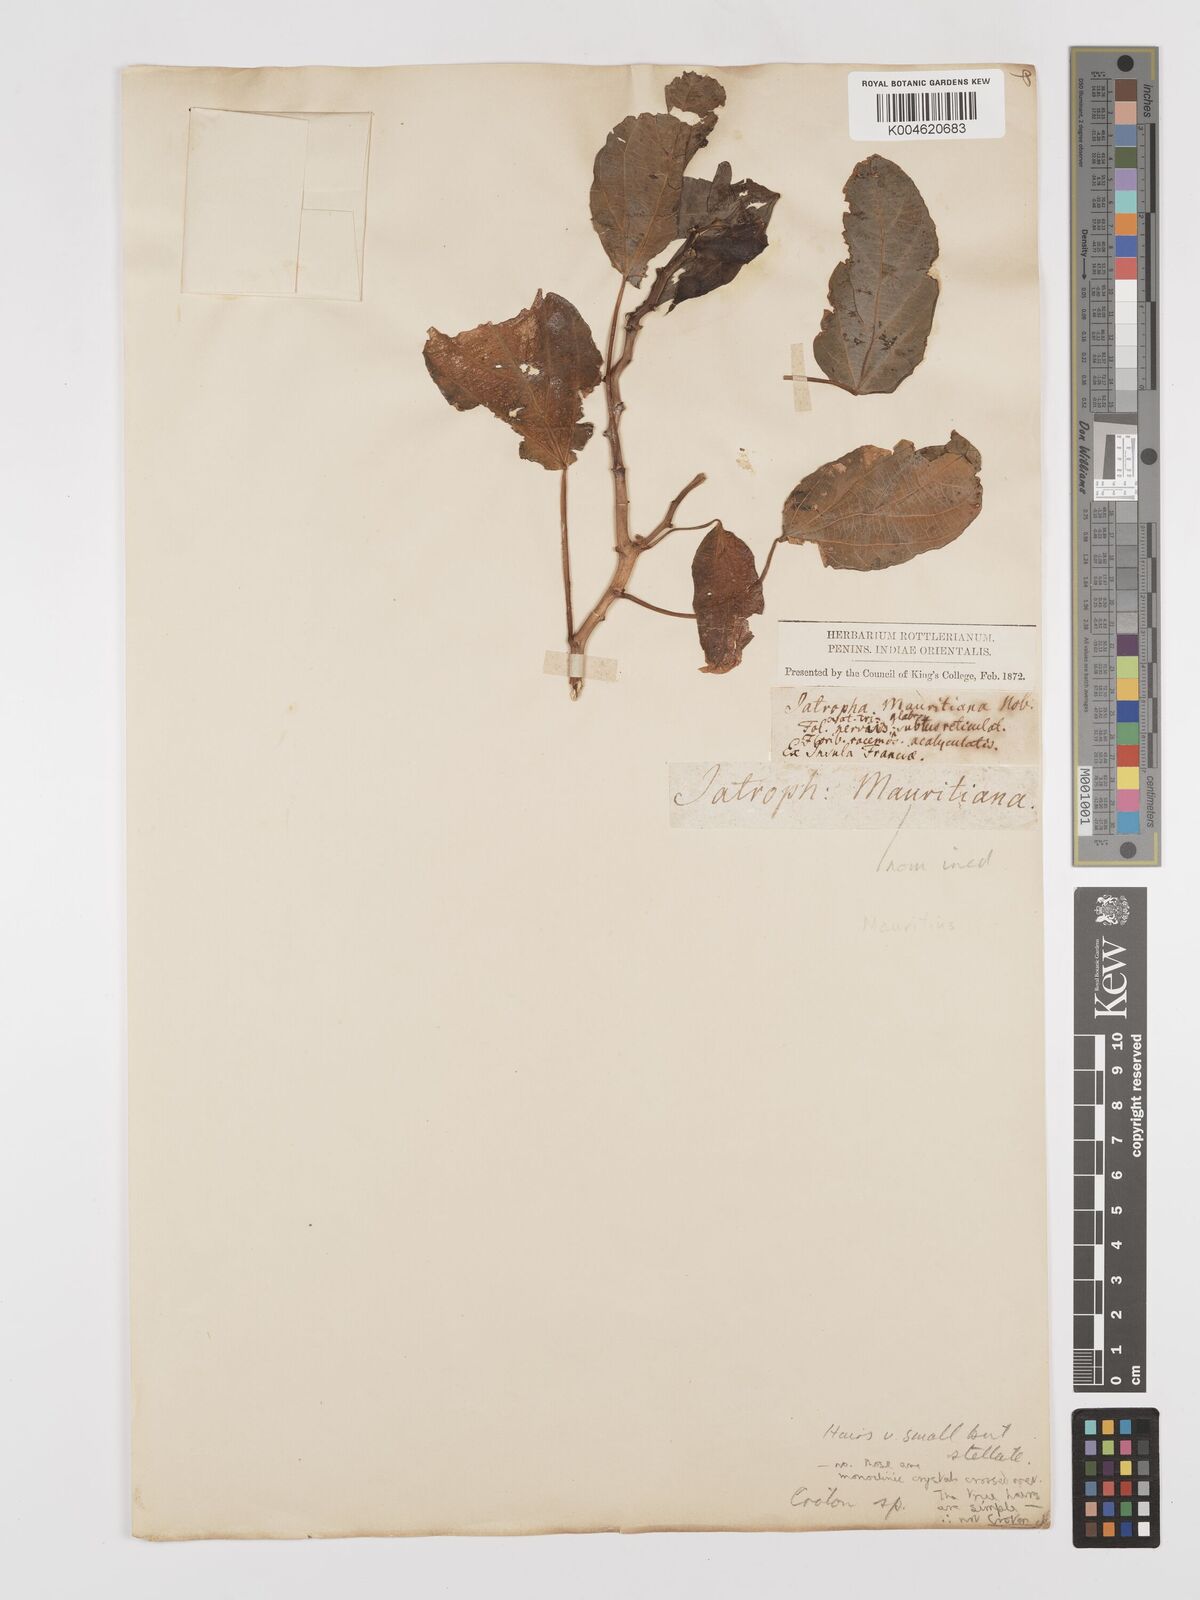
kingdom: Plantae
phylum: Tracheophyta
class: Magnoliopsida
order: Malpighiales
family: Euphorbiaceae
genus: Croton
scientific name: Croton
